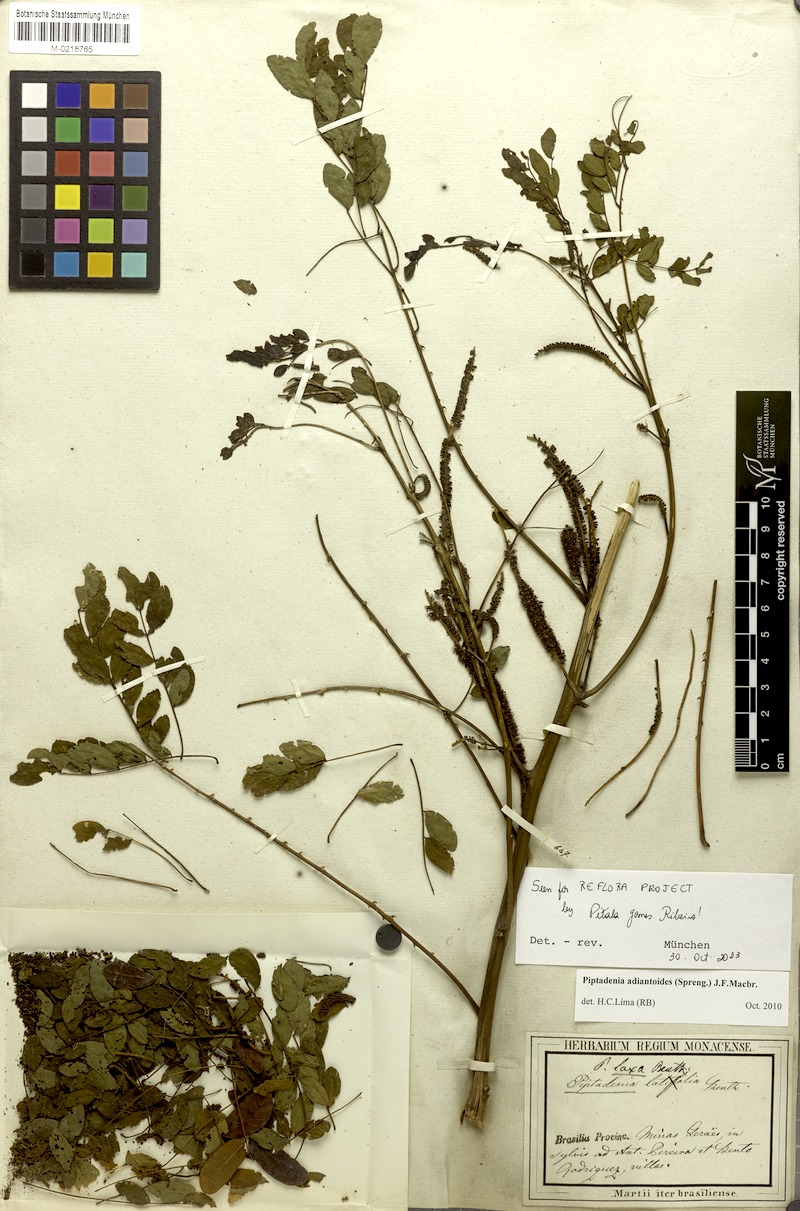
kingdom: Plantae
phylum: Tracheophyta
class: Magnoliopsida
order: Fabales
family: Fabaceae
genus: Piptadenia
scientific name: Piptadenia adiantoides
